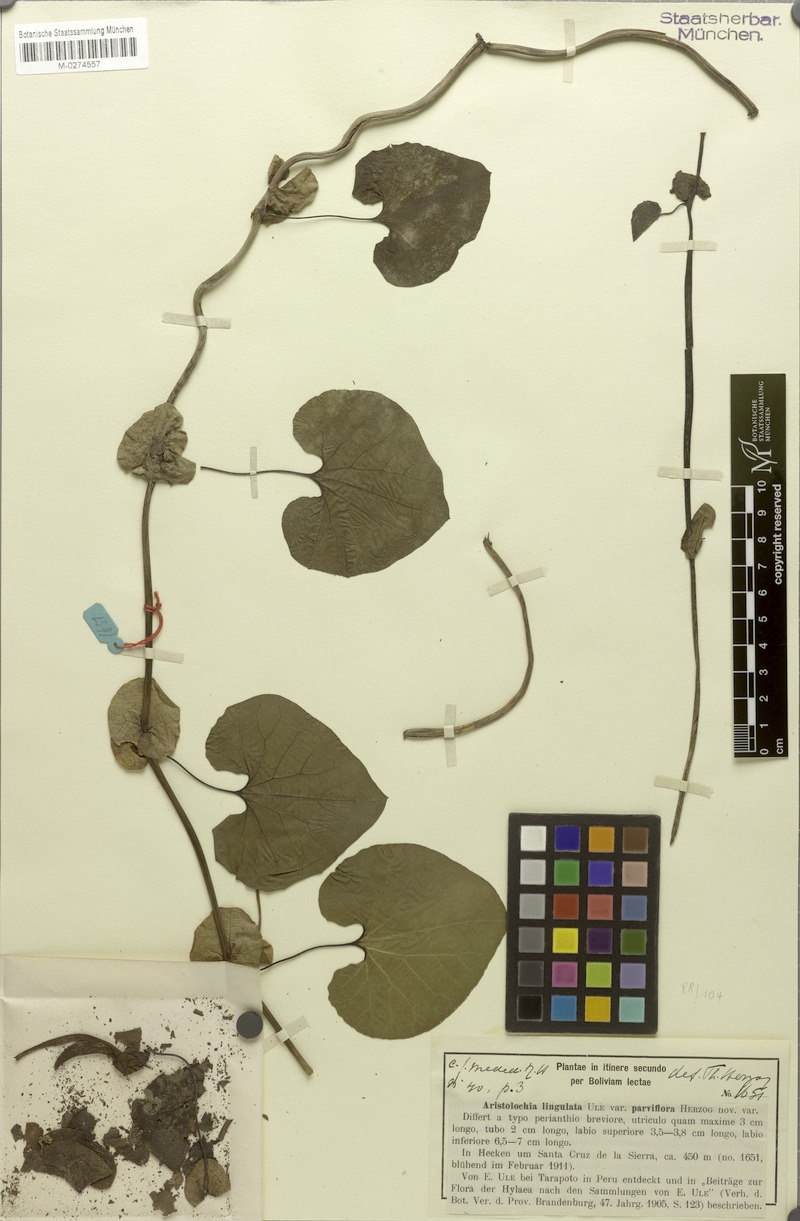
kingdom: Plantae
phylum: Tracheophyta
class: Magnoliopsida
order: Piperales
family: Aristolochiaceae
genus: Aristolochia
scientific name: Aristolochia lingulata
